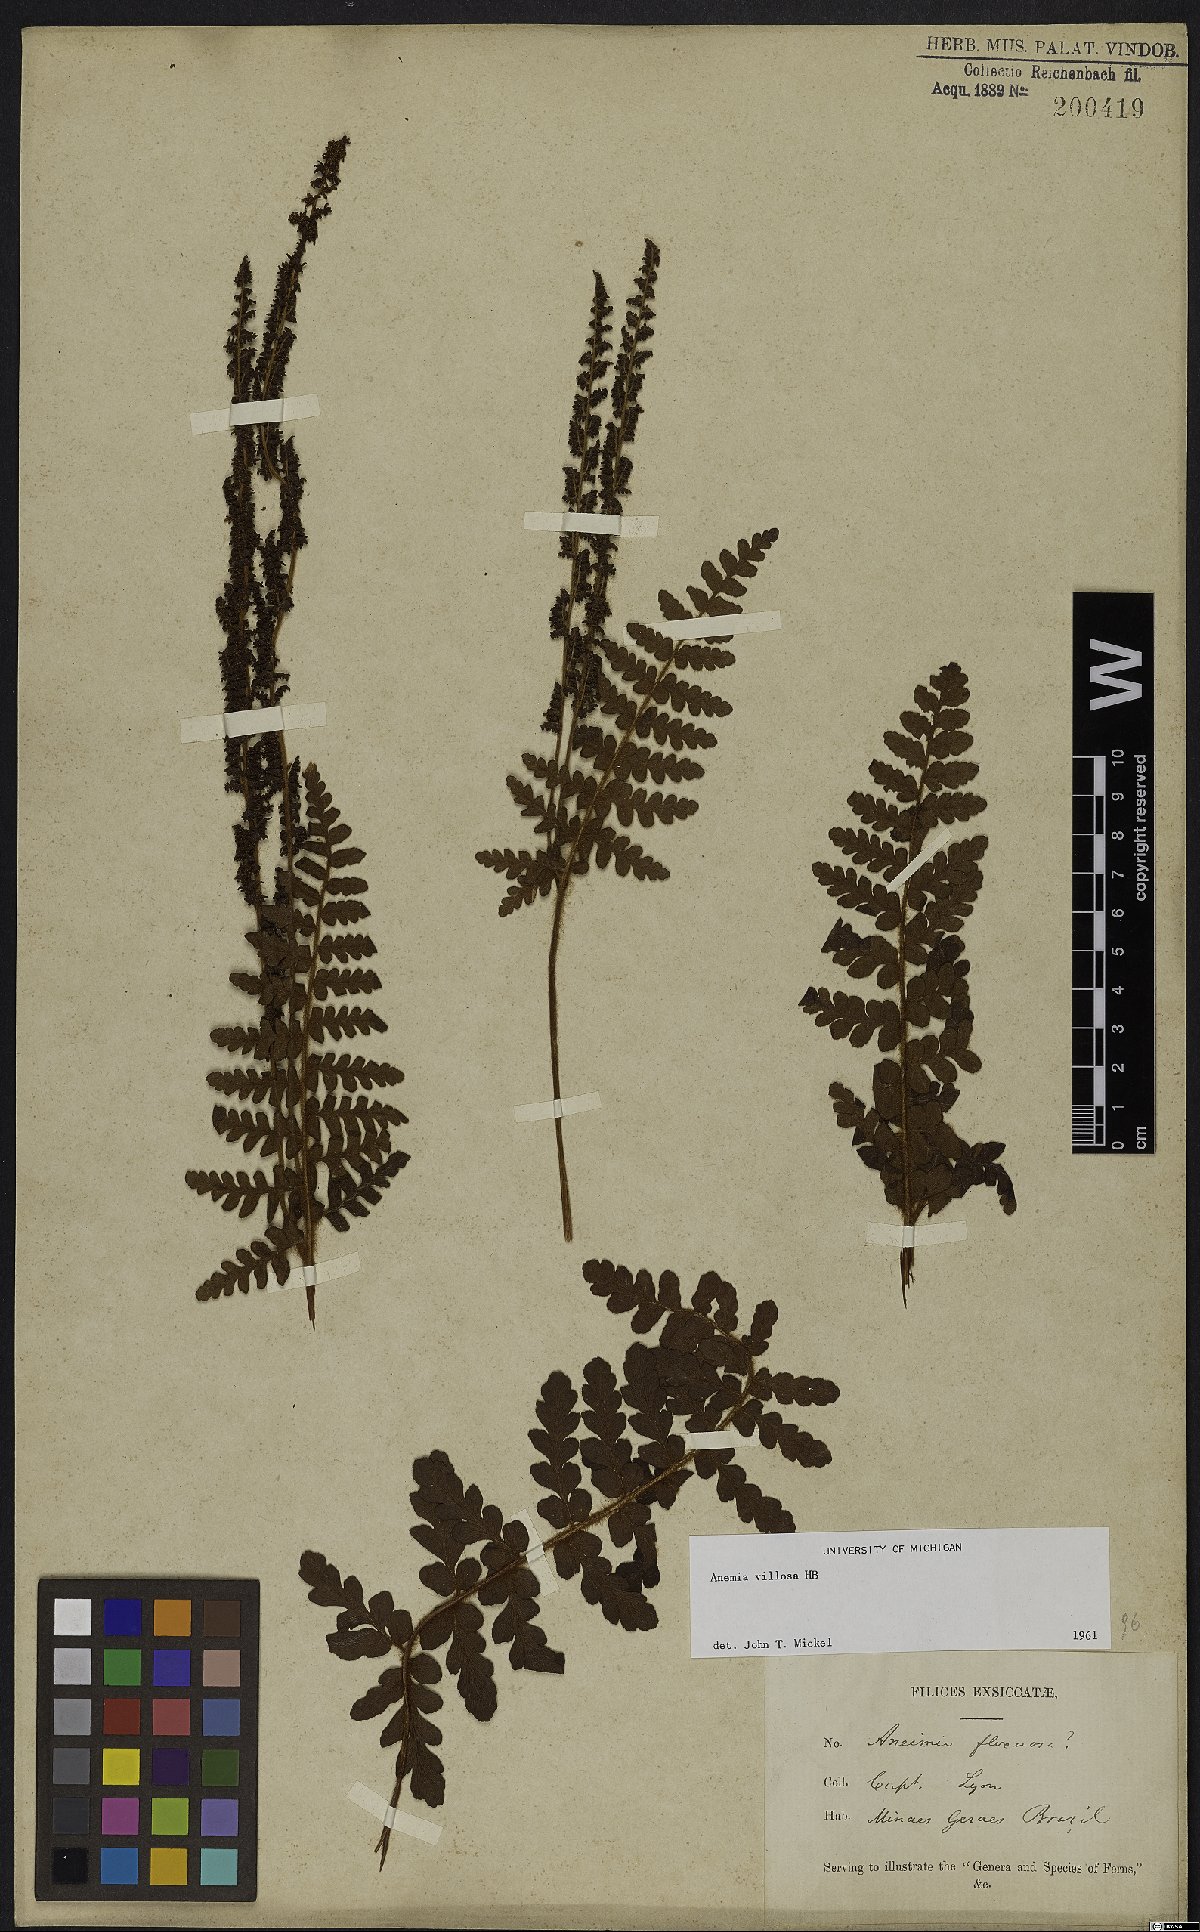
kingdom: Plantae
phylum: Tracheophyta
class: Polypodiopsida
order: Schizaeales
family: Anemiaceae
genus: Anemia
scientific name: Anemia villosa
